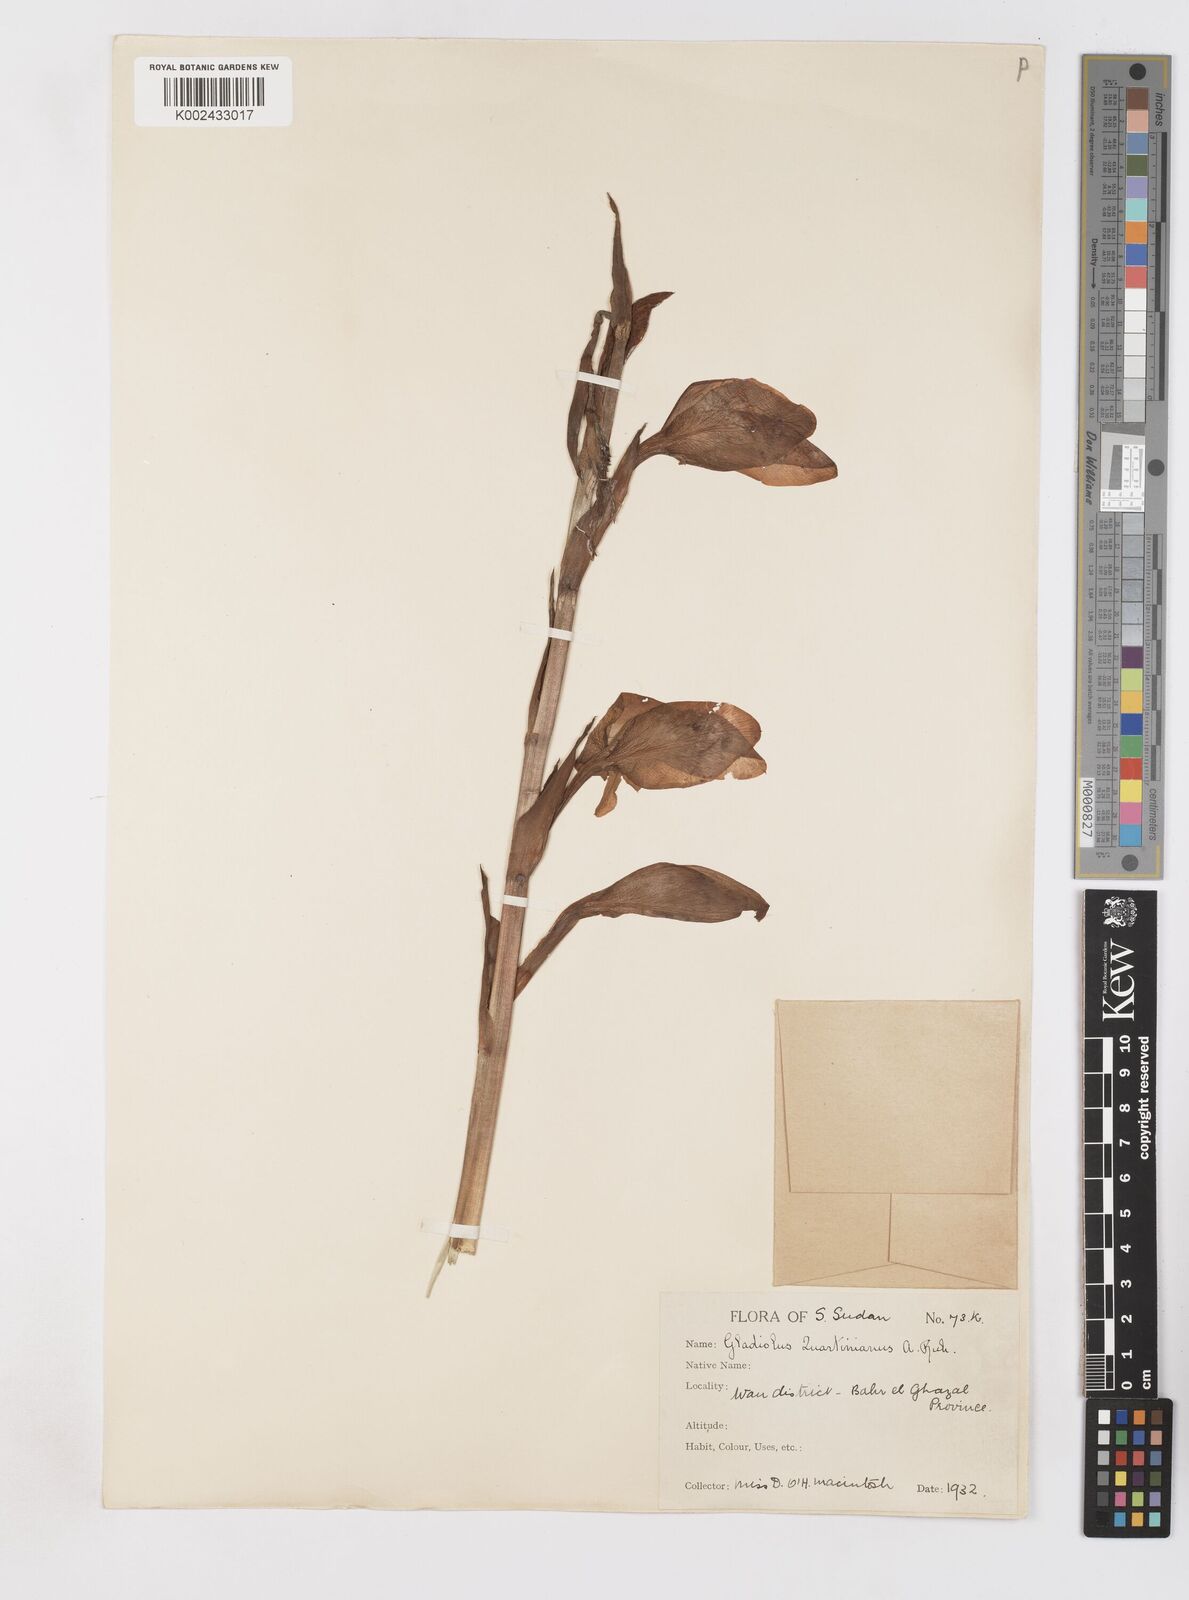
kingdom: Plantae
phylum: Tracheophyta
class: Liliopsida
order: Asparagales
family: Iridaceae
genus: Gladiolus
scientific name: Gladiolus dalenii
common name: Cornflag
